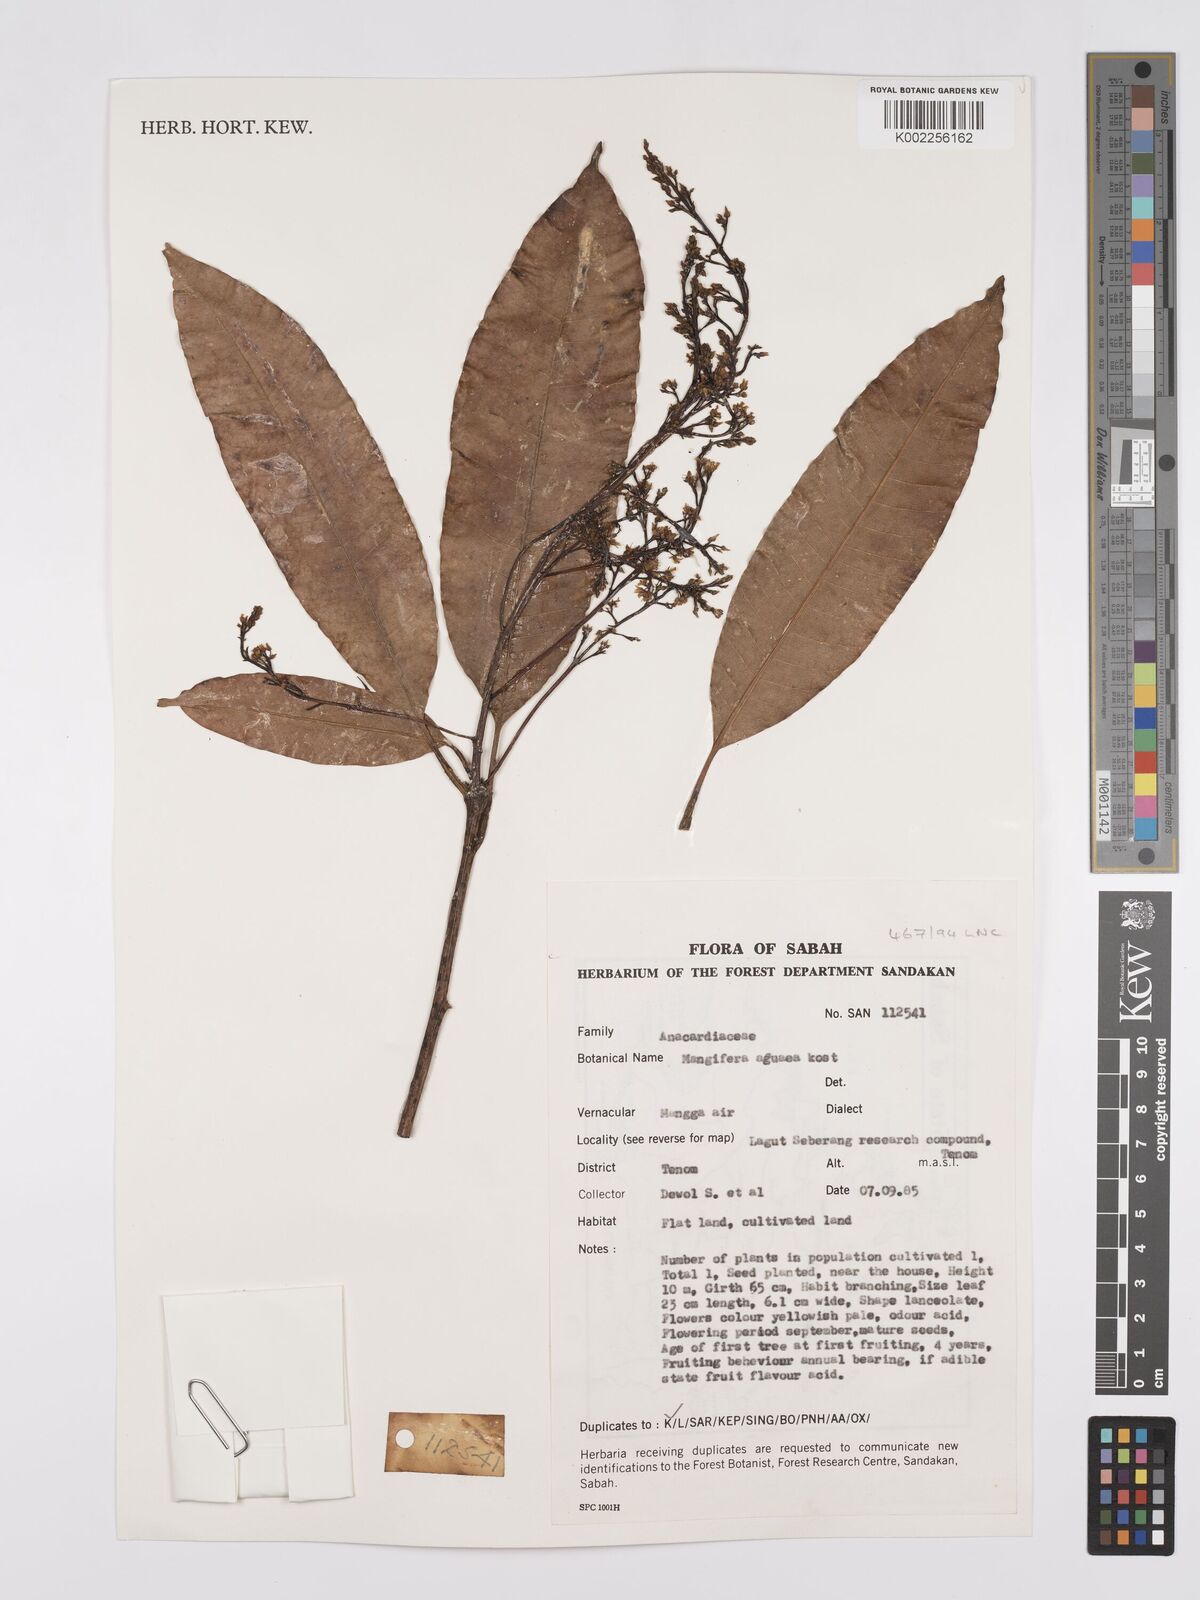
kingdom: Plantae
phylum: Tracheophyta
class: Magnoliopsida
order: Sapindales
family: Anacardiaceae
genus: Mangifera
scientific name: Mangifera laurina
